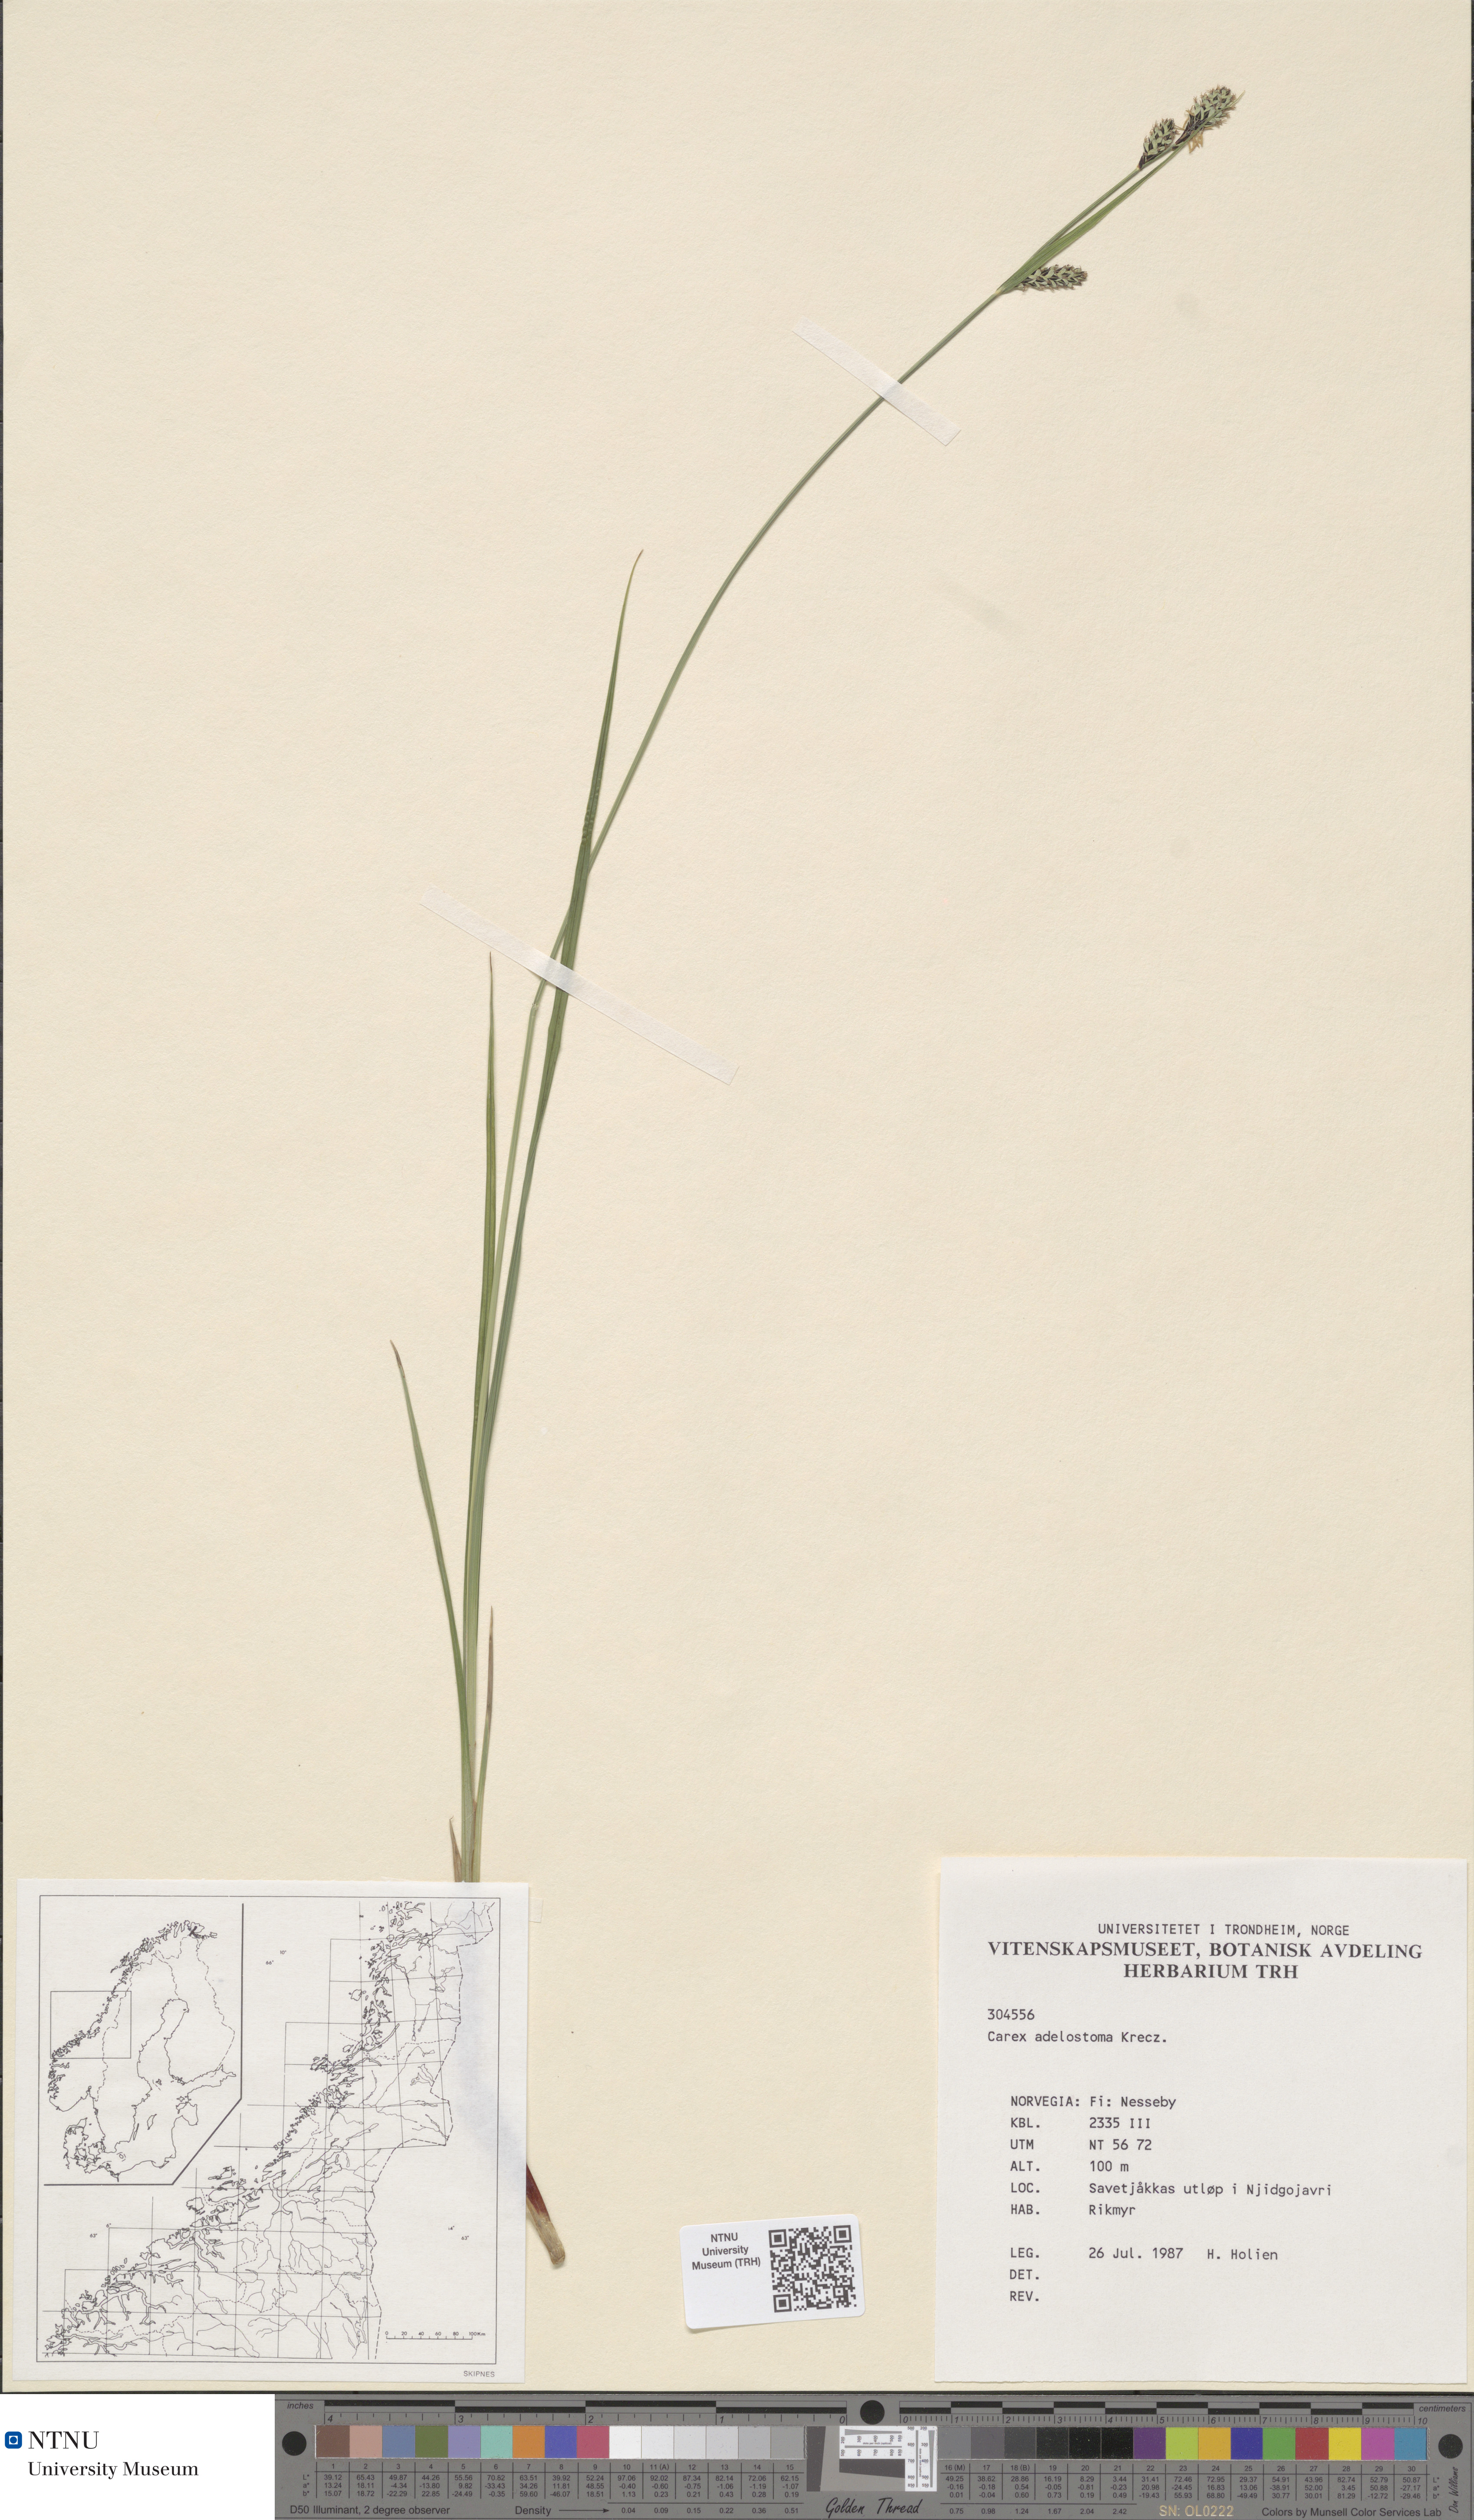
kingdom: Plantae
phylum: Tracheophyta
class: Liliopsida
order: Poales
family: Cyperaceae
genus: Carex
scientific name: Carex adelostoma
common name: Circumpolar sedge
